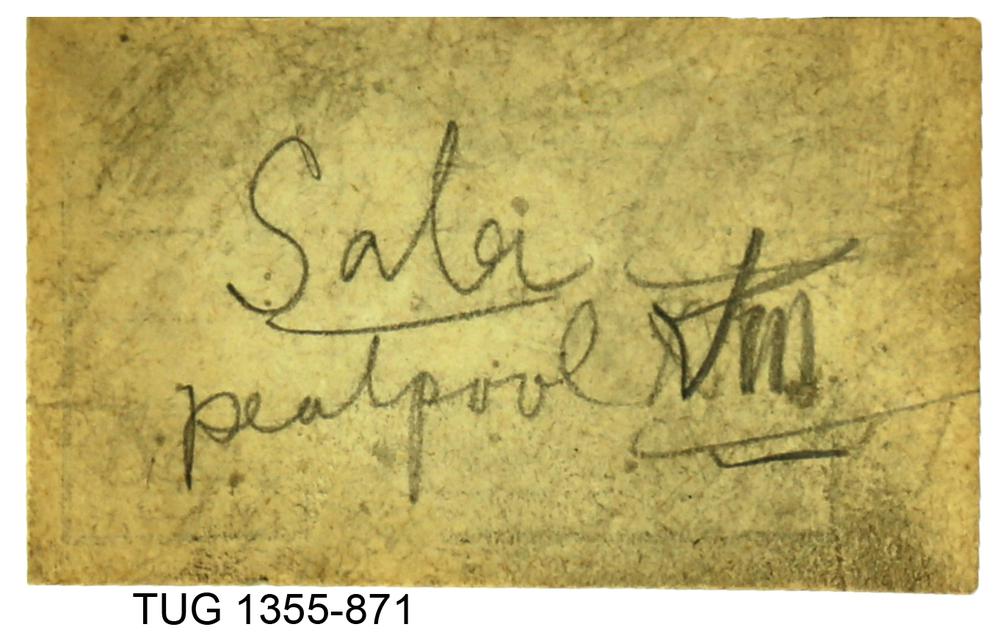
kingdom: Animalia
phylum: Arthropoda
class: Trilobita
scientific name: Trilobita
